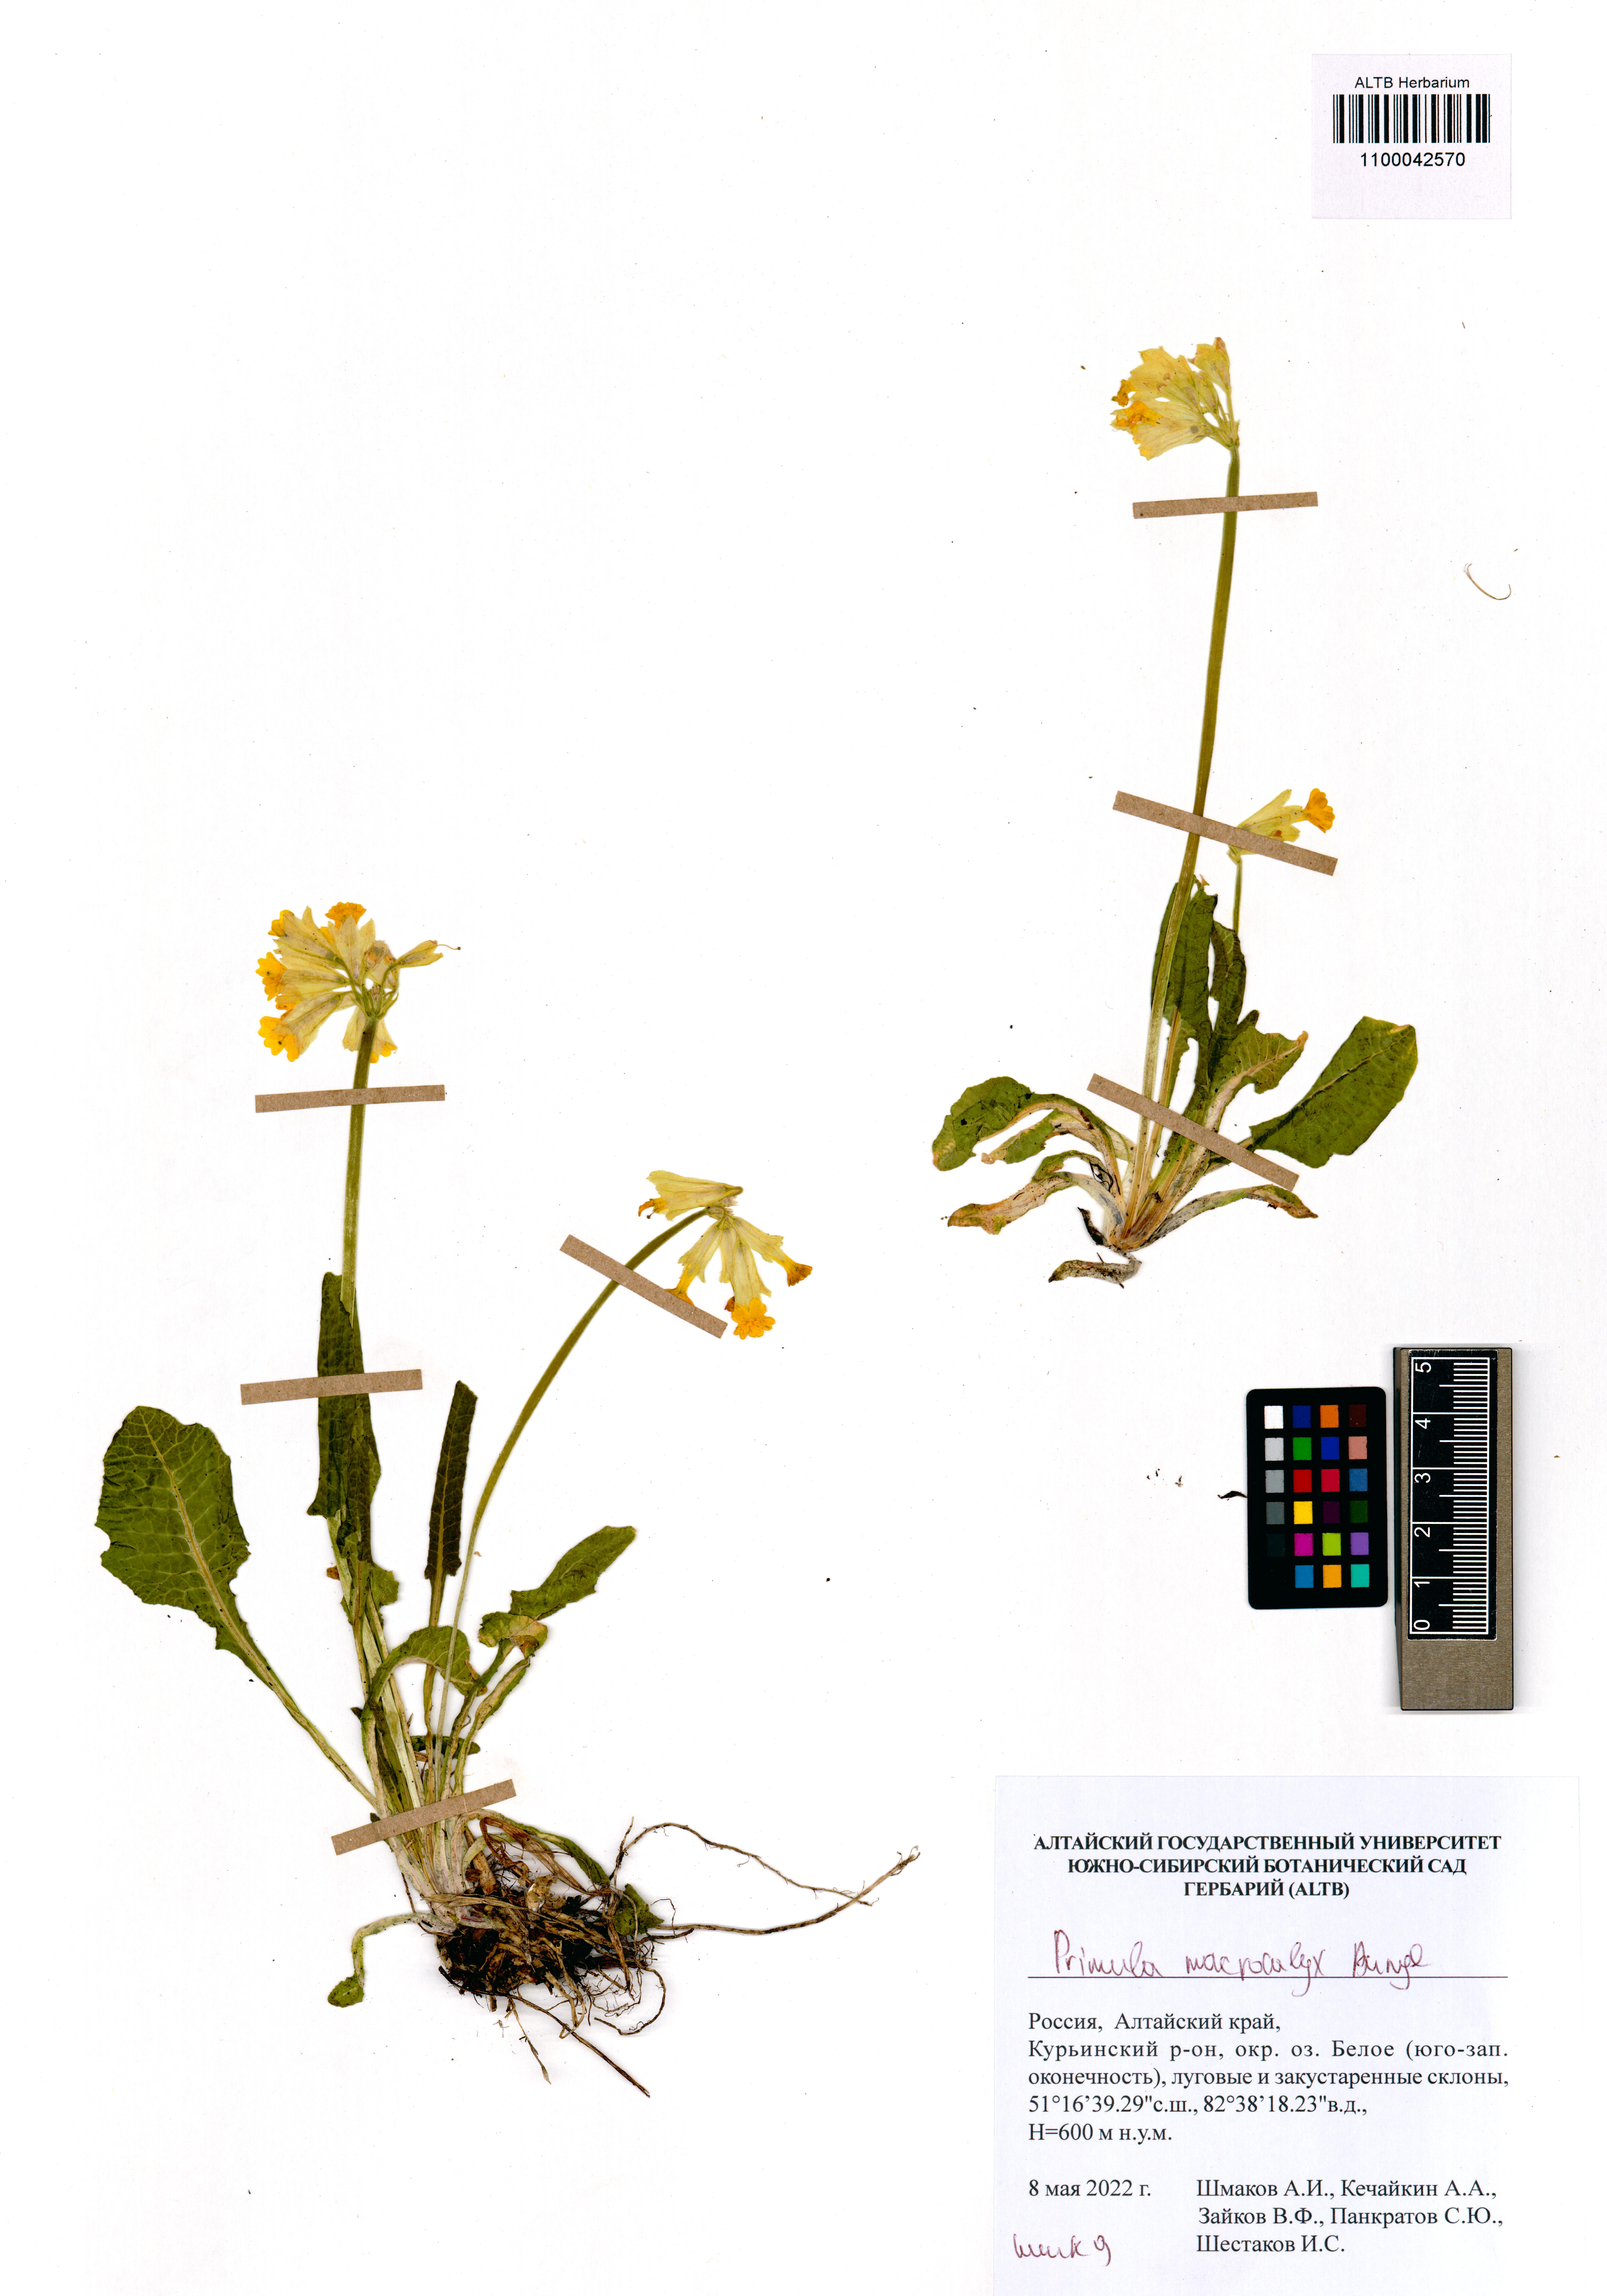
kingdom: Plantae
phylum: Tracheophyta
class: Magnoliopsida
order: Ericales
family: Primulaceae
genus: Primula
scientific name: Primula veris
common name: Cowslip
